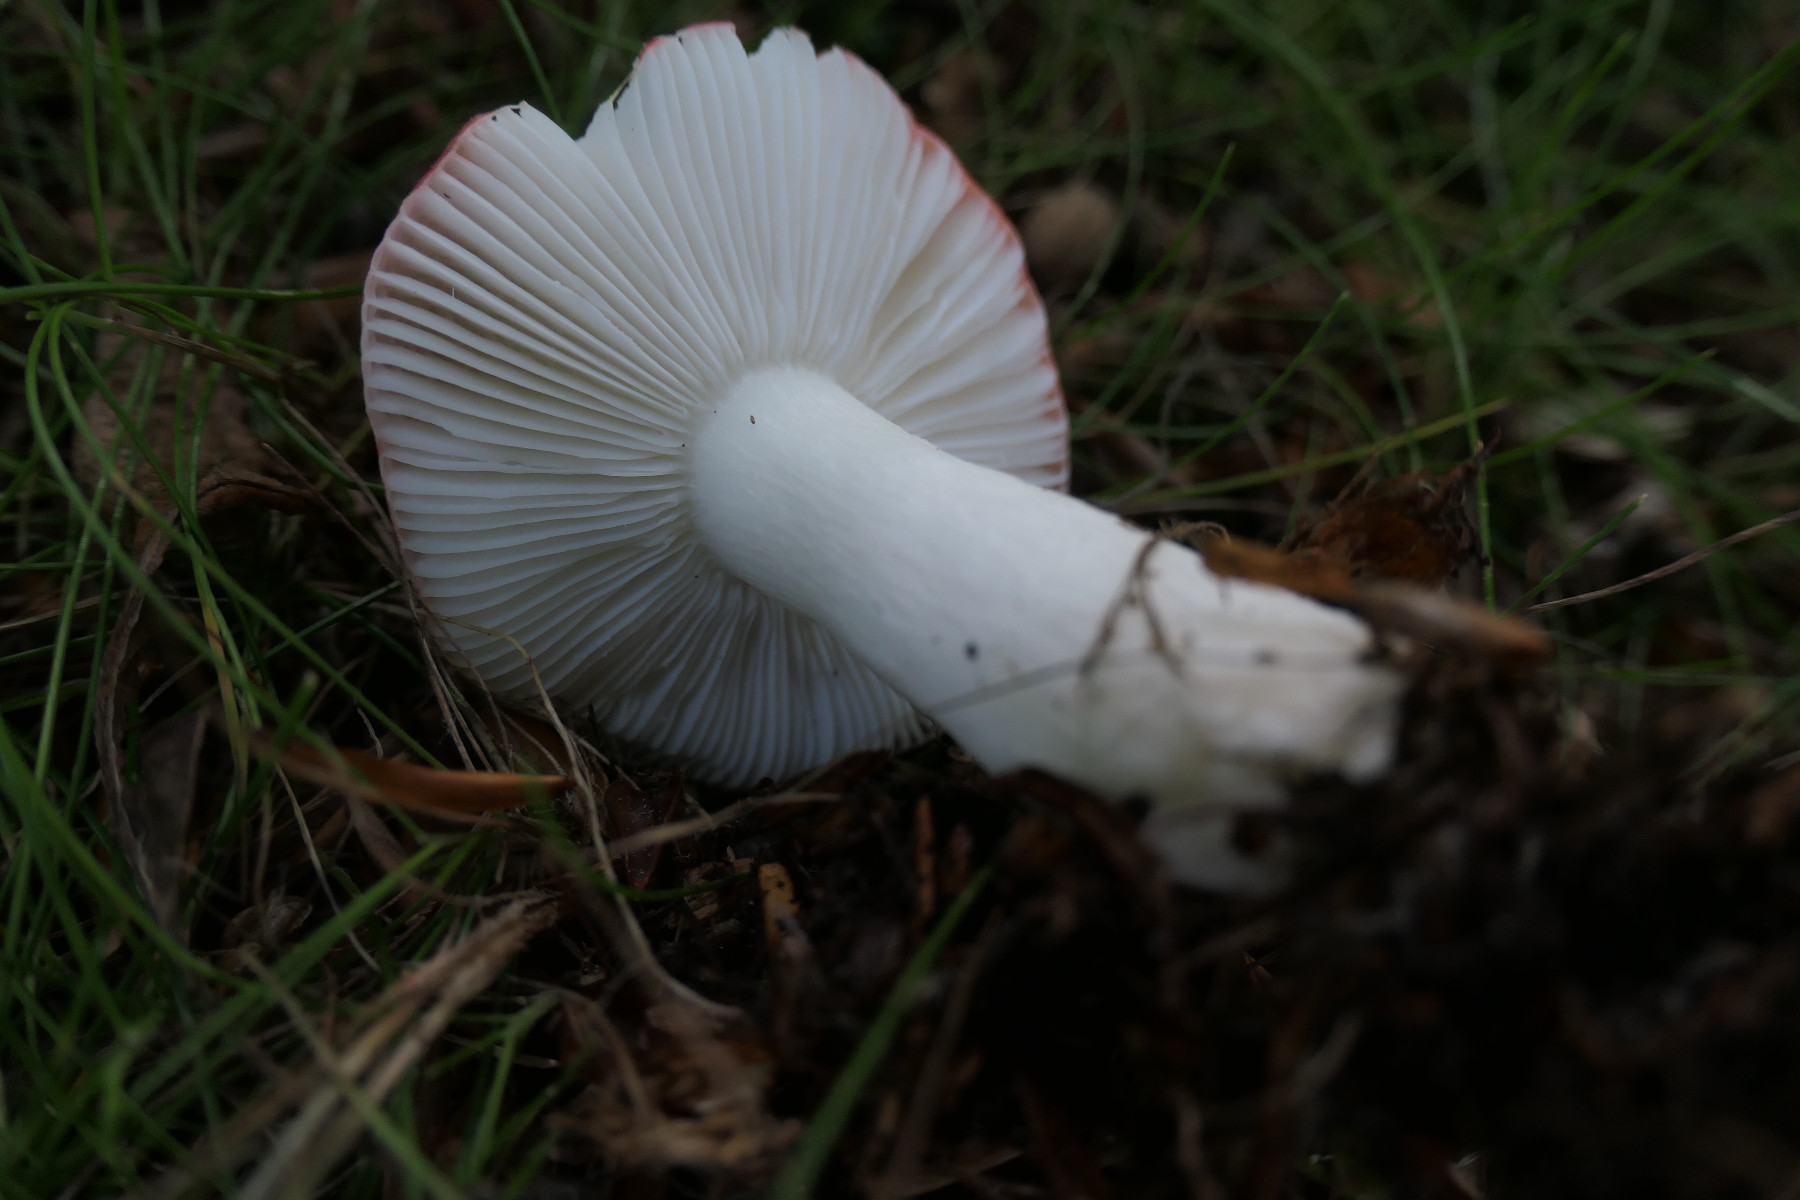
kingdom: Fungi
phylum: Basidiomycota
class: Agaricomycetes
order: Russulales
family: Russulaceae
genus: Russula
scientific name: Russula nobilis
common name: lille gift-skørhat
